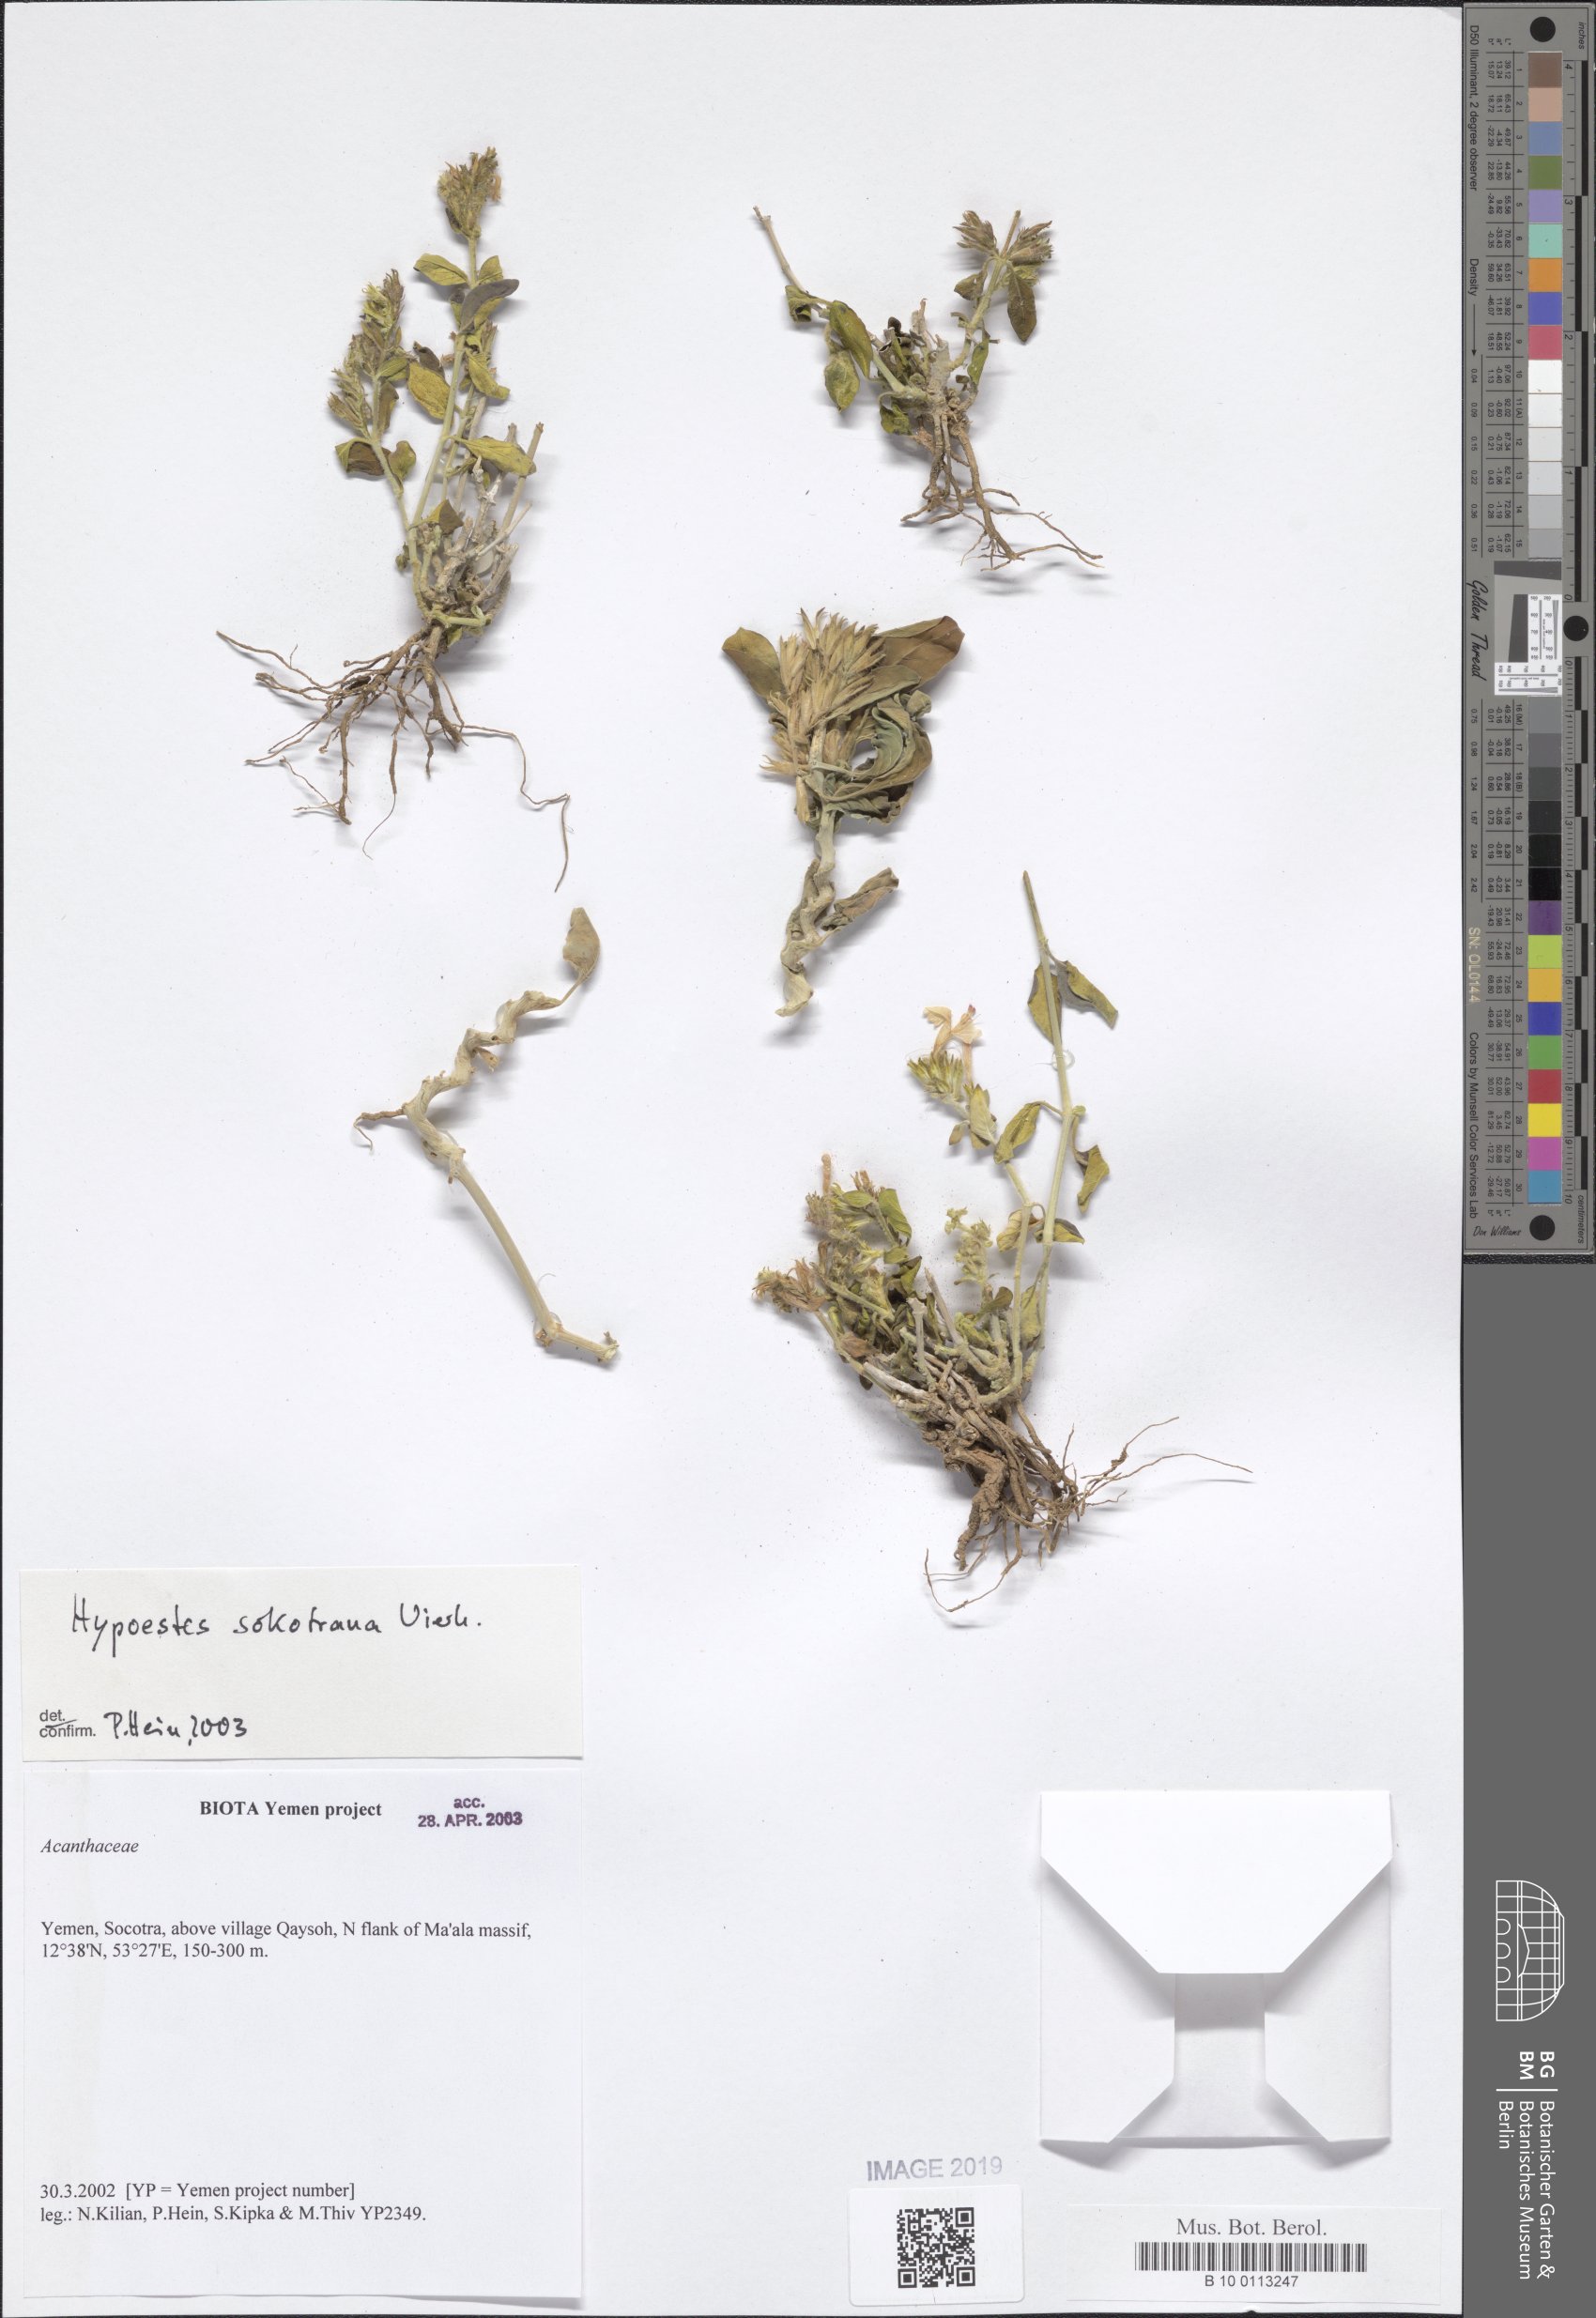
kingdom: Plantae
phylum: Tracheophyta
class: Magnoliopsida
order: Lamiales
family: Acanthaceae
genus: Hypoestes
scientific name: Hypoestes sokotrana
